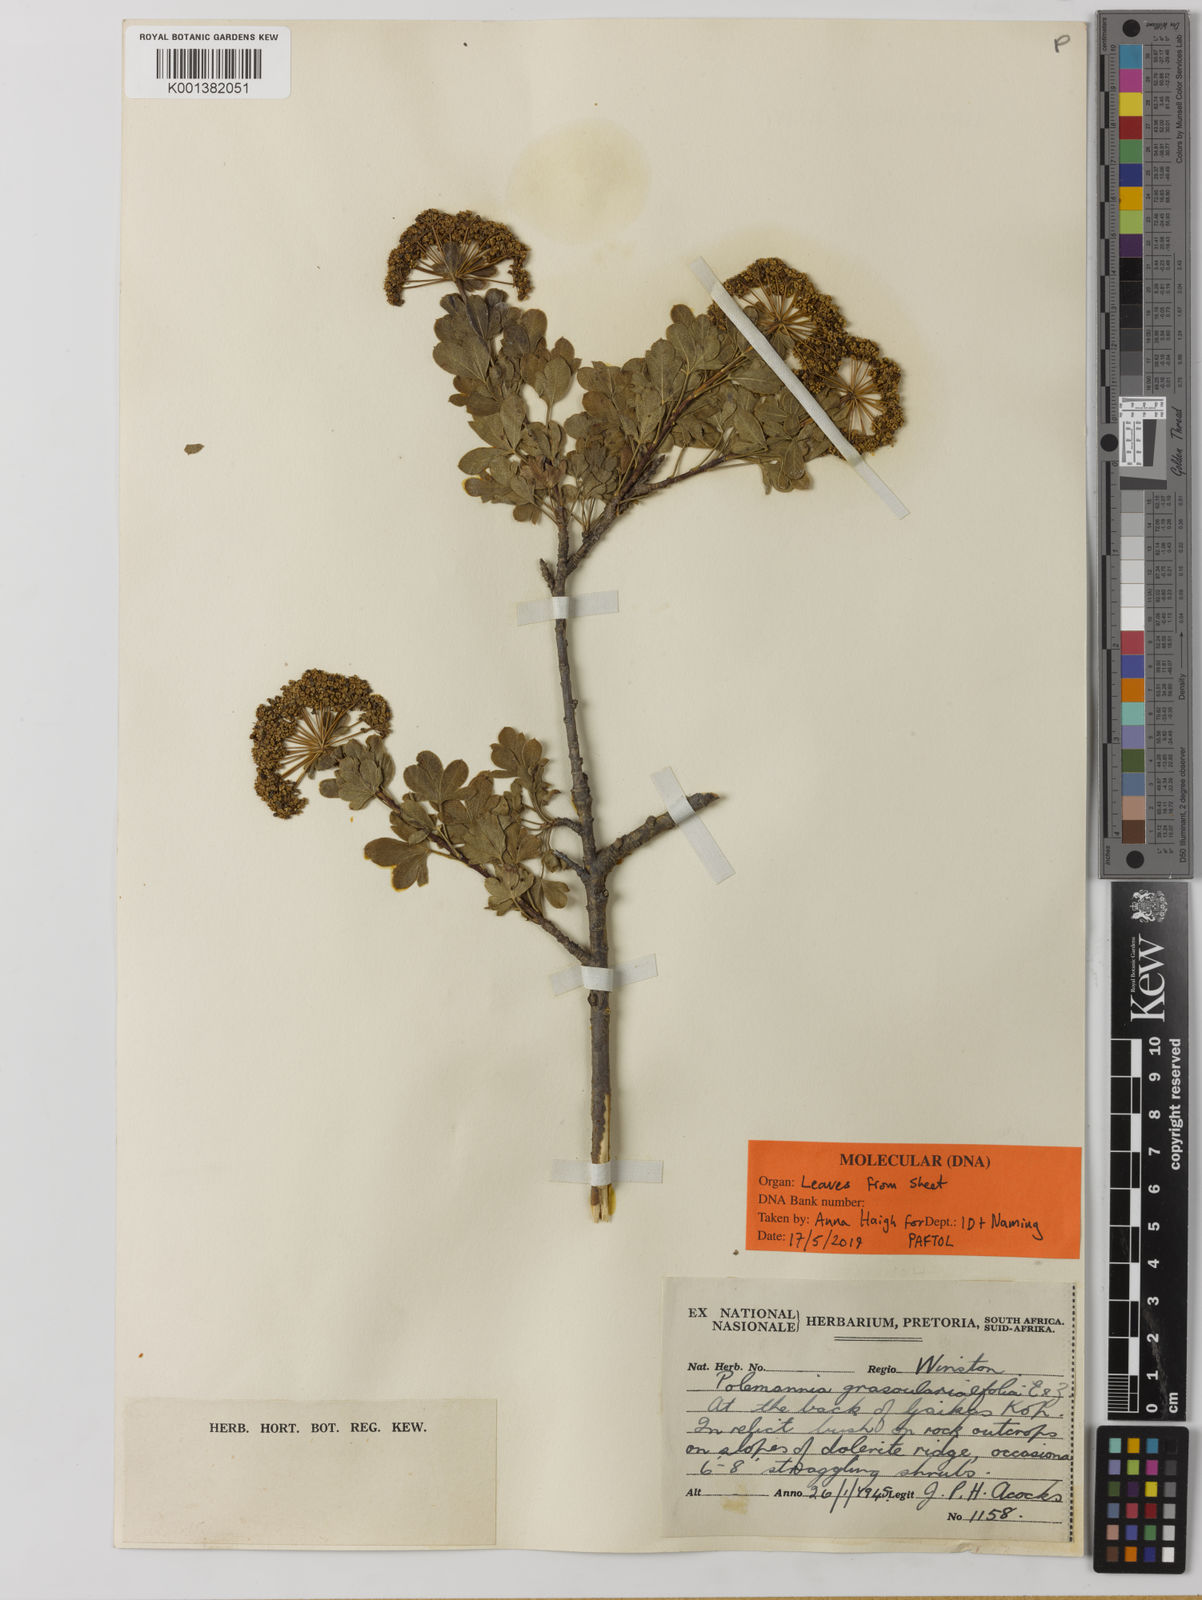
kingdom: Plantae
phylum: Tracheophyta
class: Magnoliopsida
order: Apiales
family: Apiaceae
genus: Polemannia
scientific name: Polemannia grossulariifolia
